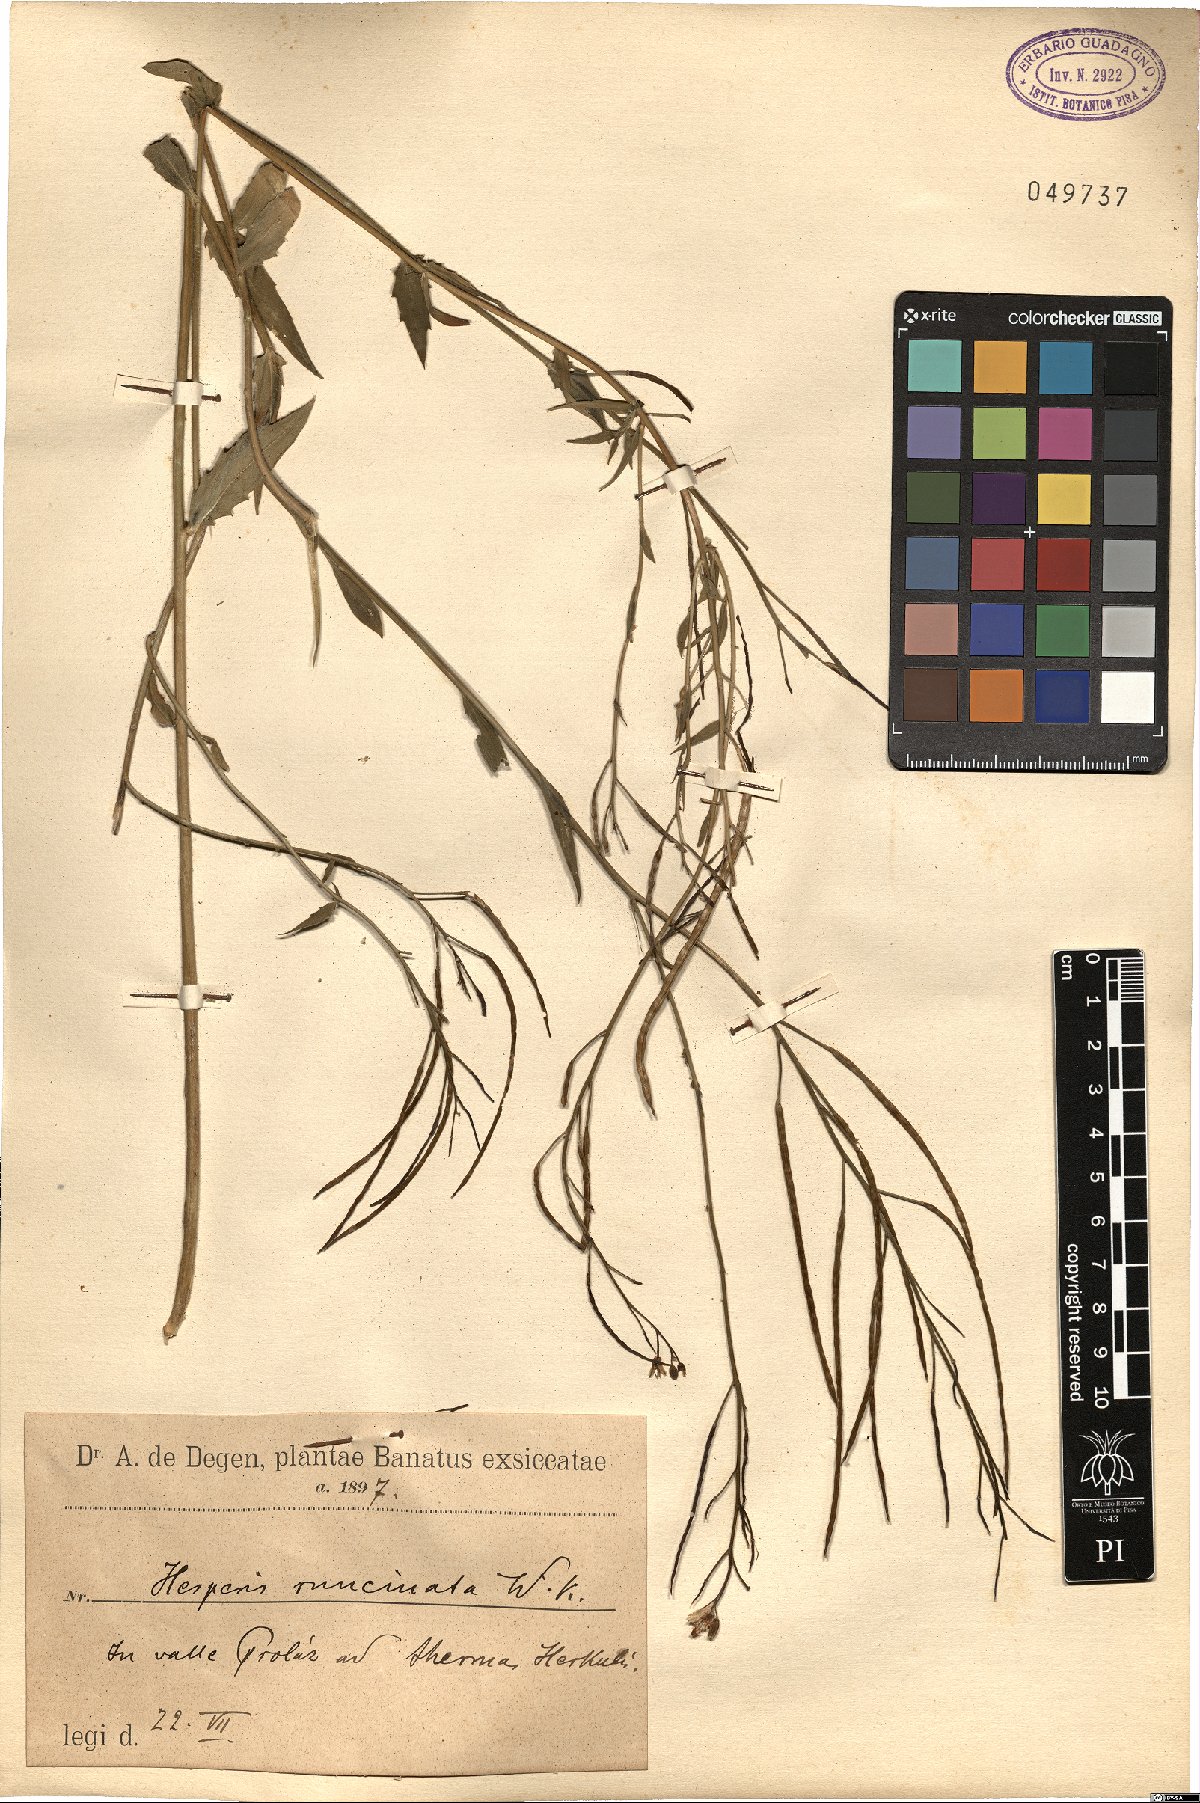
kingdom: Plantae
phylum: Tracheophyta
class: Magnoliopsida
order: Brassicales
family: Brassicaceae
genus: Hesperis
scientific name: Hesperis sylvestris
